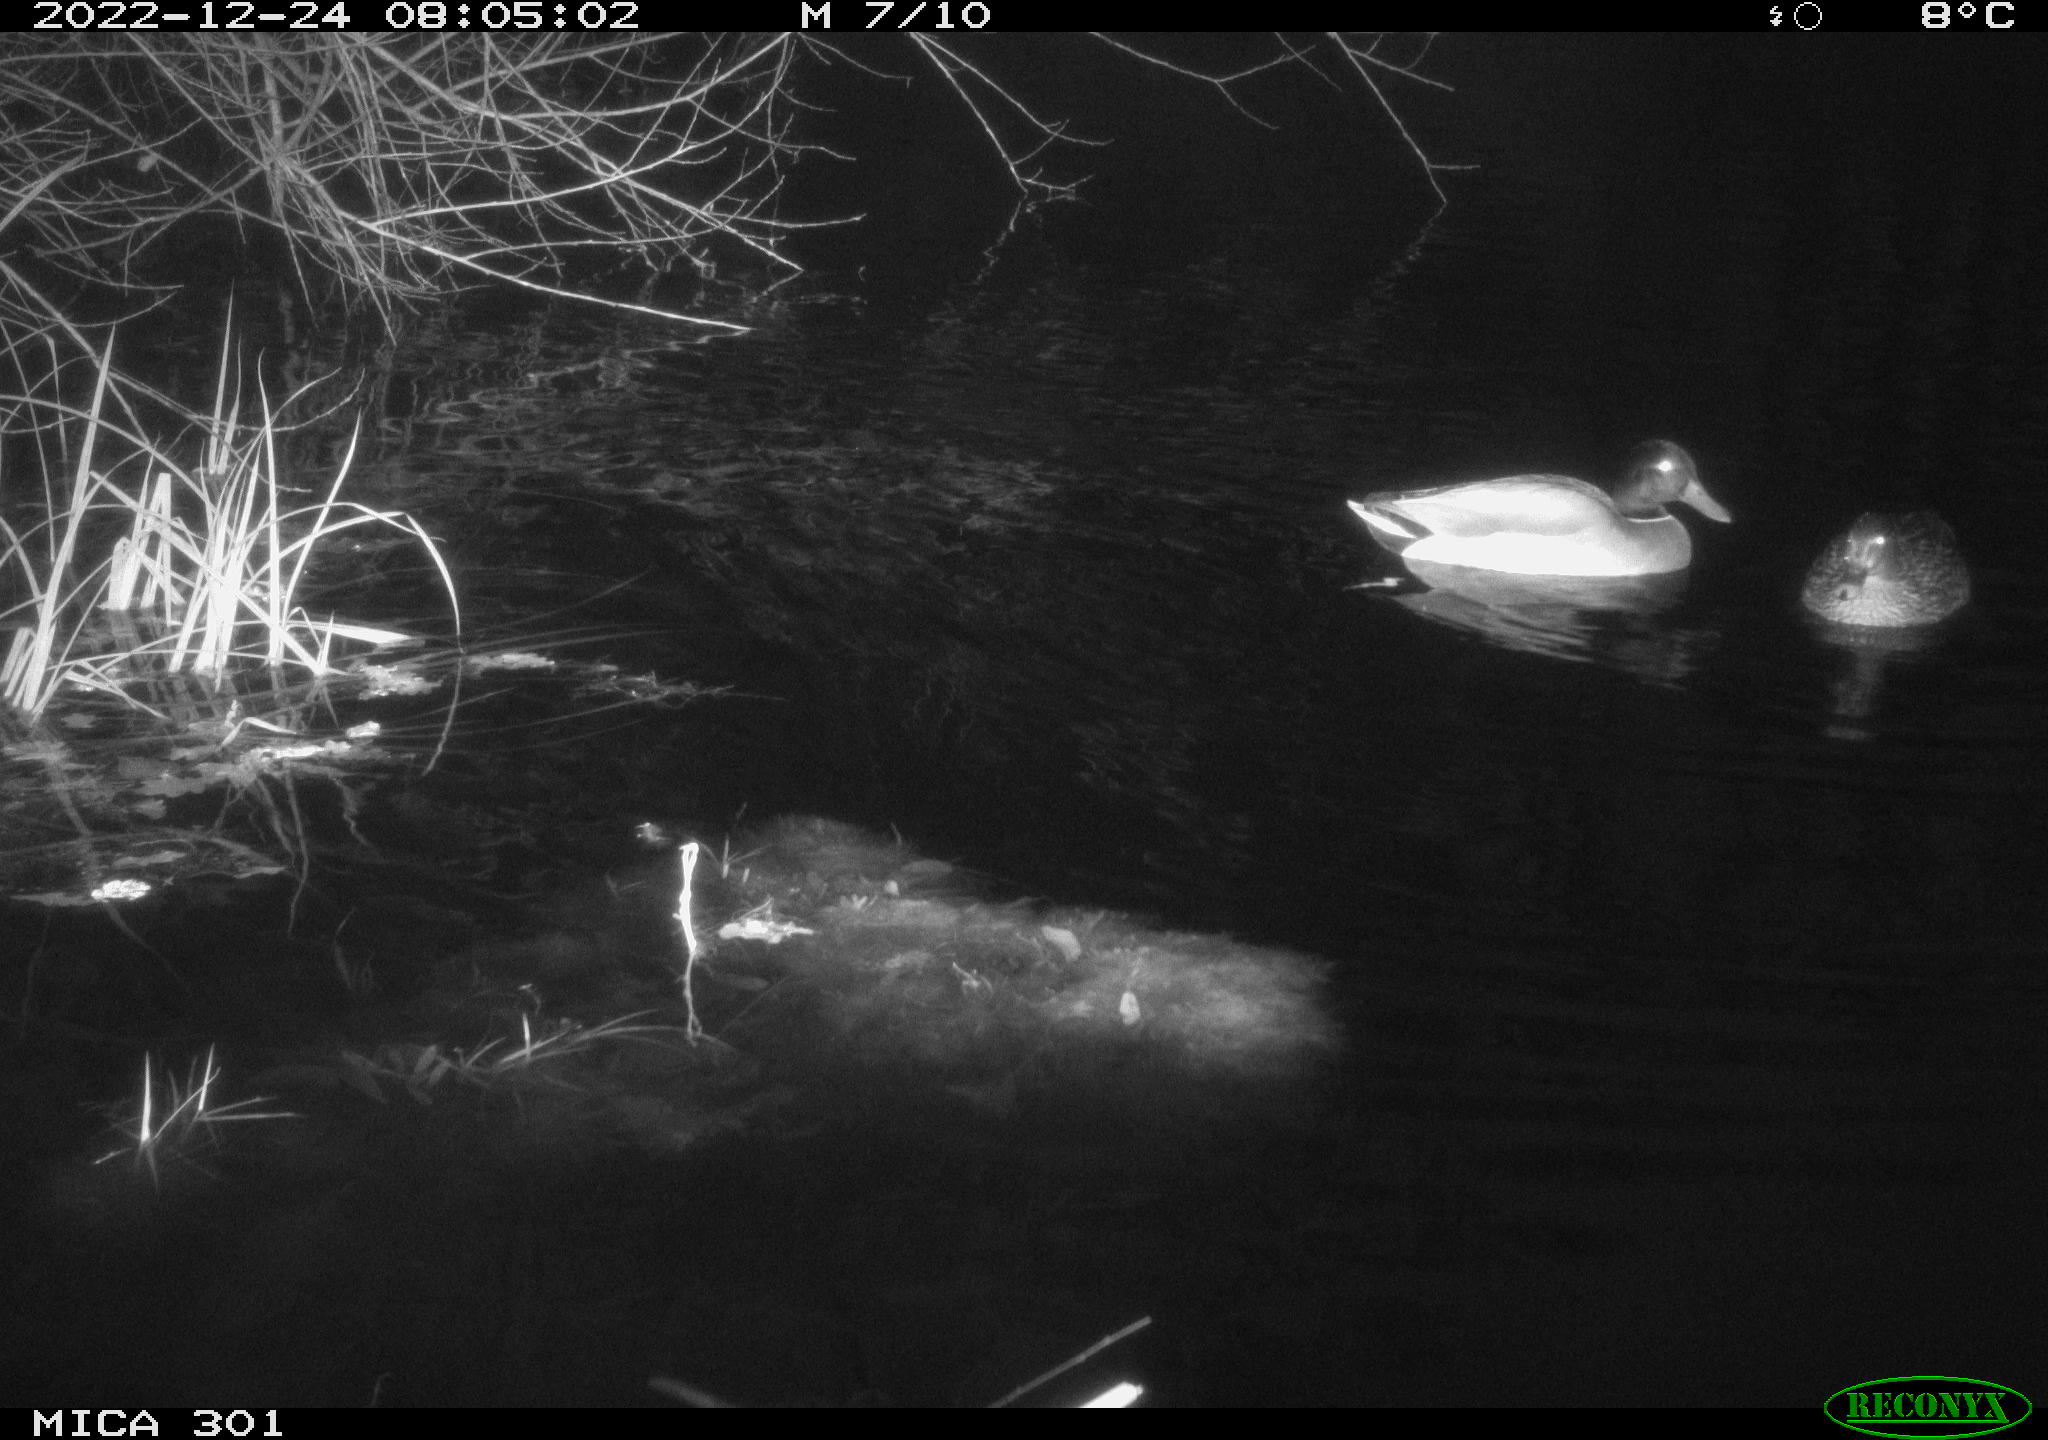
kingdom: Animalia
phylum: Chordata
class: Aves
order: Anseriformes
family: Anatidae
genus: Anas
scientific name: Anas
